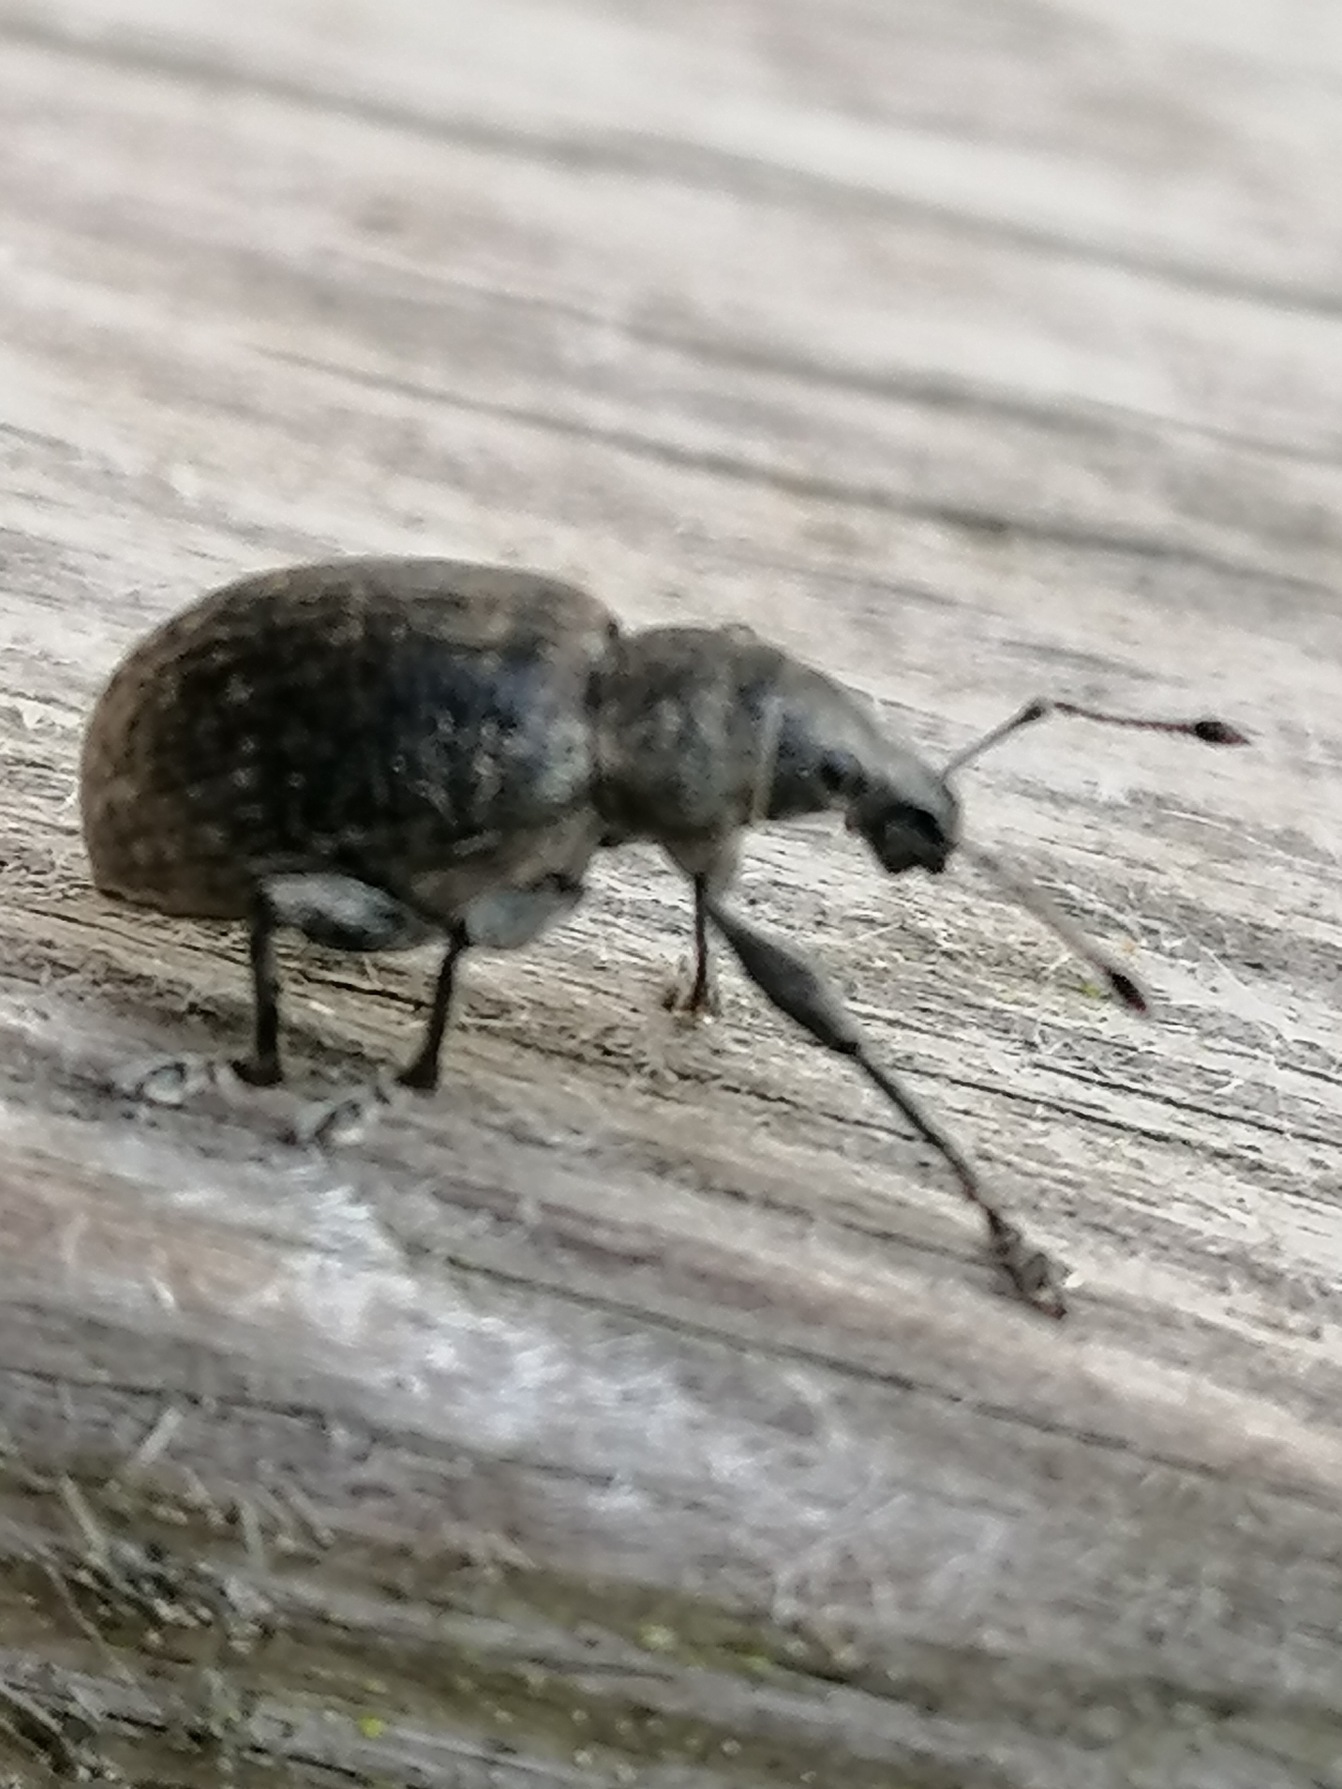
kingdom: Animalia
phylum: Arthropoda
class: Insecta
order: Coleoptera
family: Curculionidae
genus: Liophloeus
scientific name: Liophloeus tessulatus
